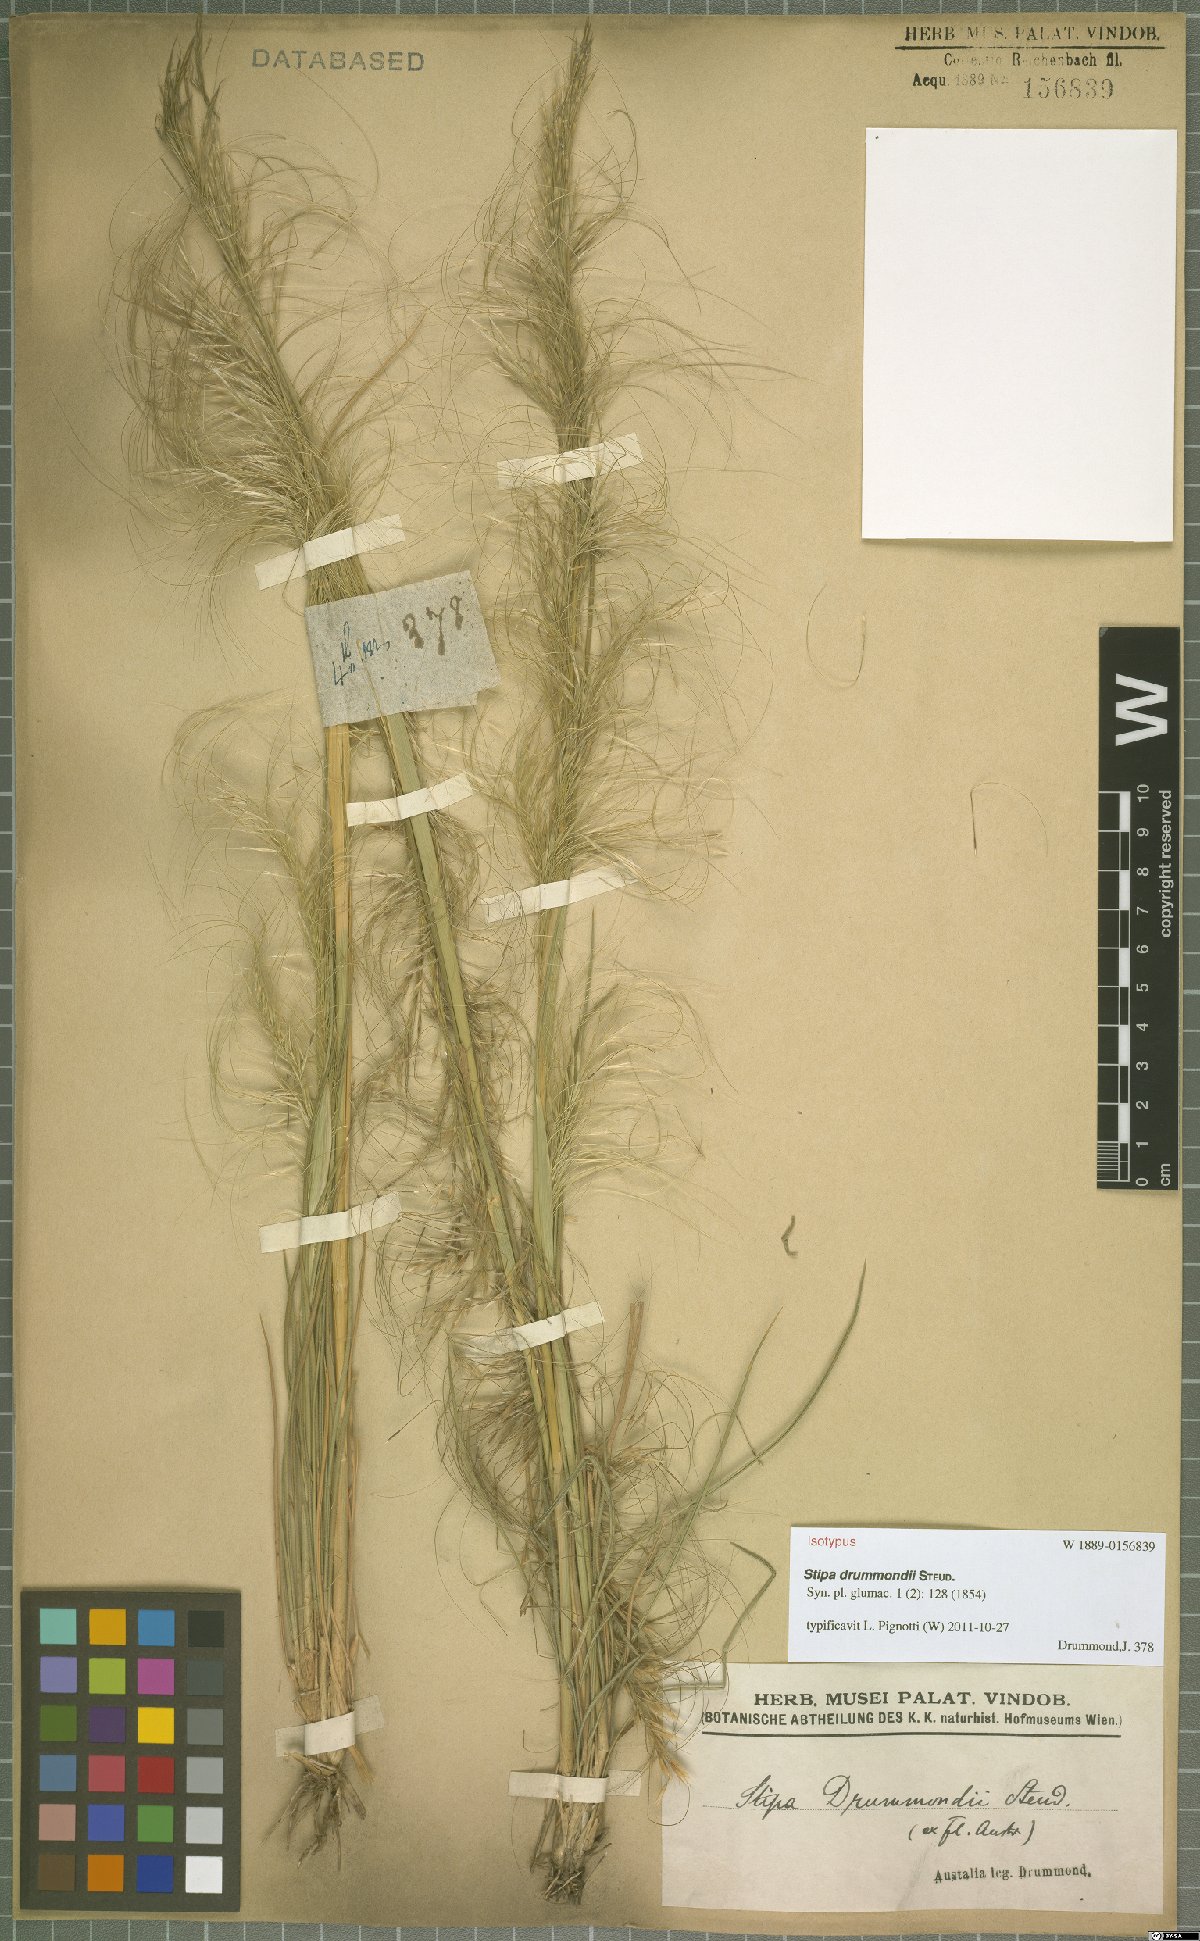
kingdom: Plantae
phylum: Tracheophyta
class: Liliopsida
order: Poales
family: Poaceae
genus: Austrostipa
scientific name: Austrostipa drummondii
